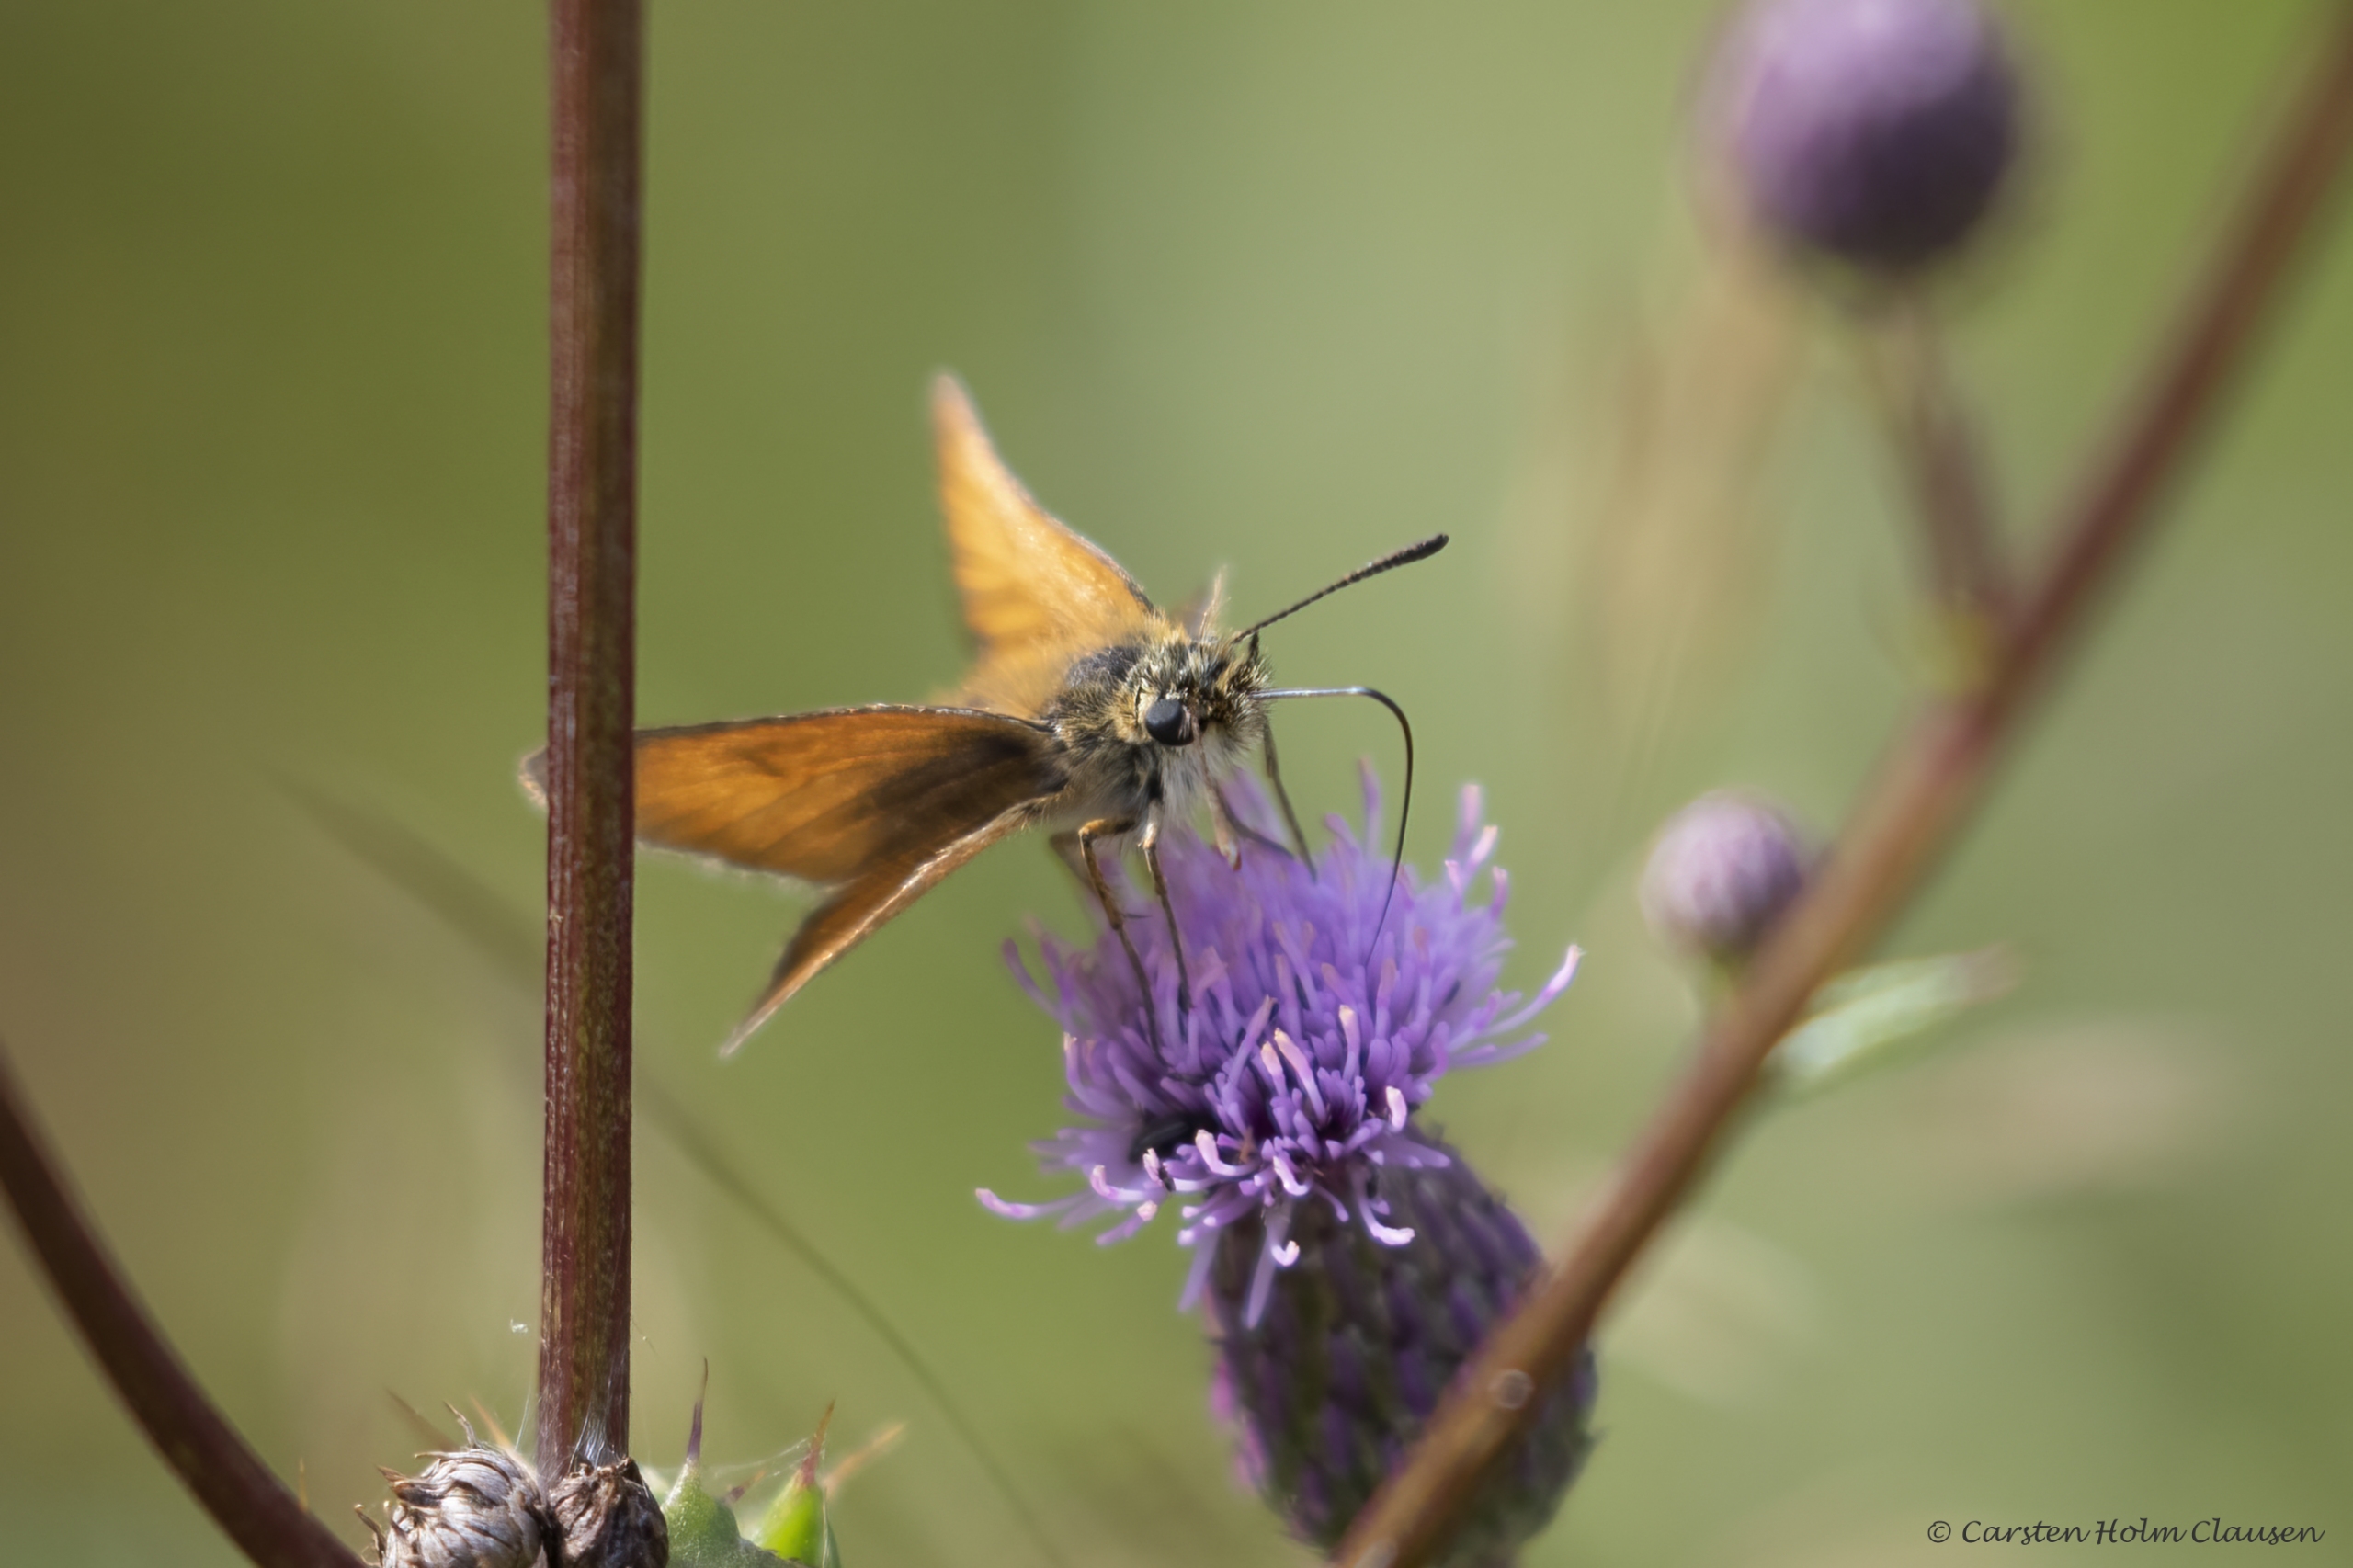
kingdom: Animalia
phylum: Arthropoda
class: Insecta
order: Lepidoptera
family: Hesperiidae
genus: Thymelicus
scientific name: Thymelicus lineola
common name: Stregbredpande
